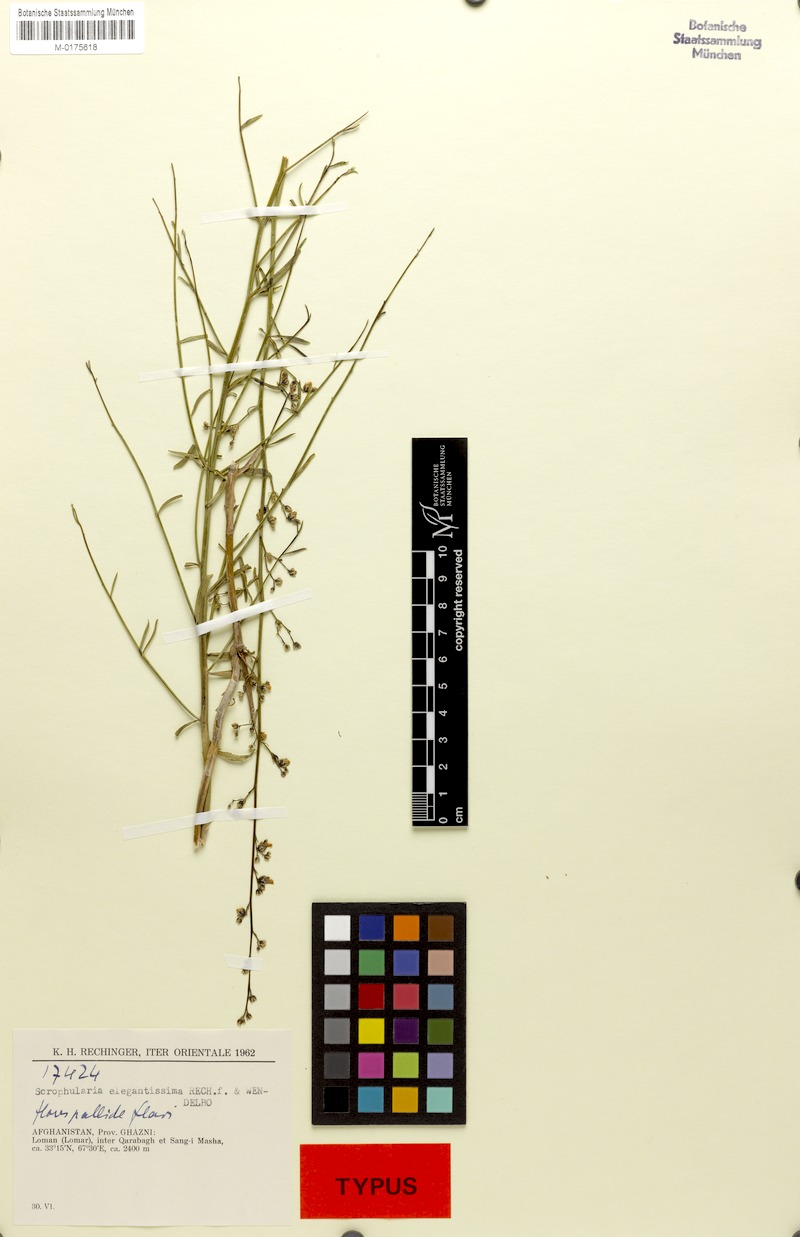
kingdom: Plantae
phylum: Tracheophyta
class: Magnoliopsida
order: Lamiales
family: Scrophulariaceae
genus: Scrophularia
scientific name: Scrophularia cabulica
